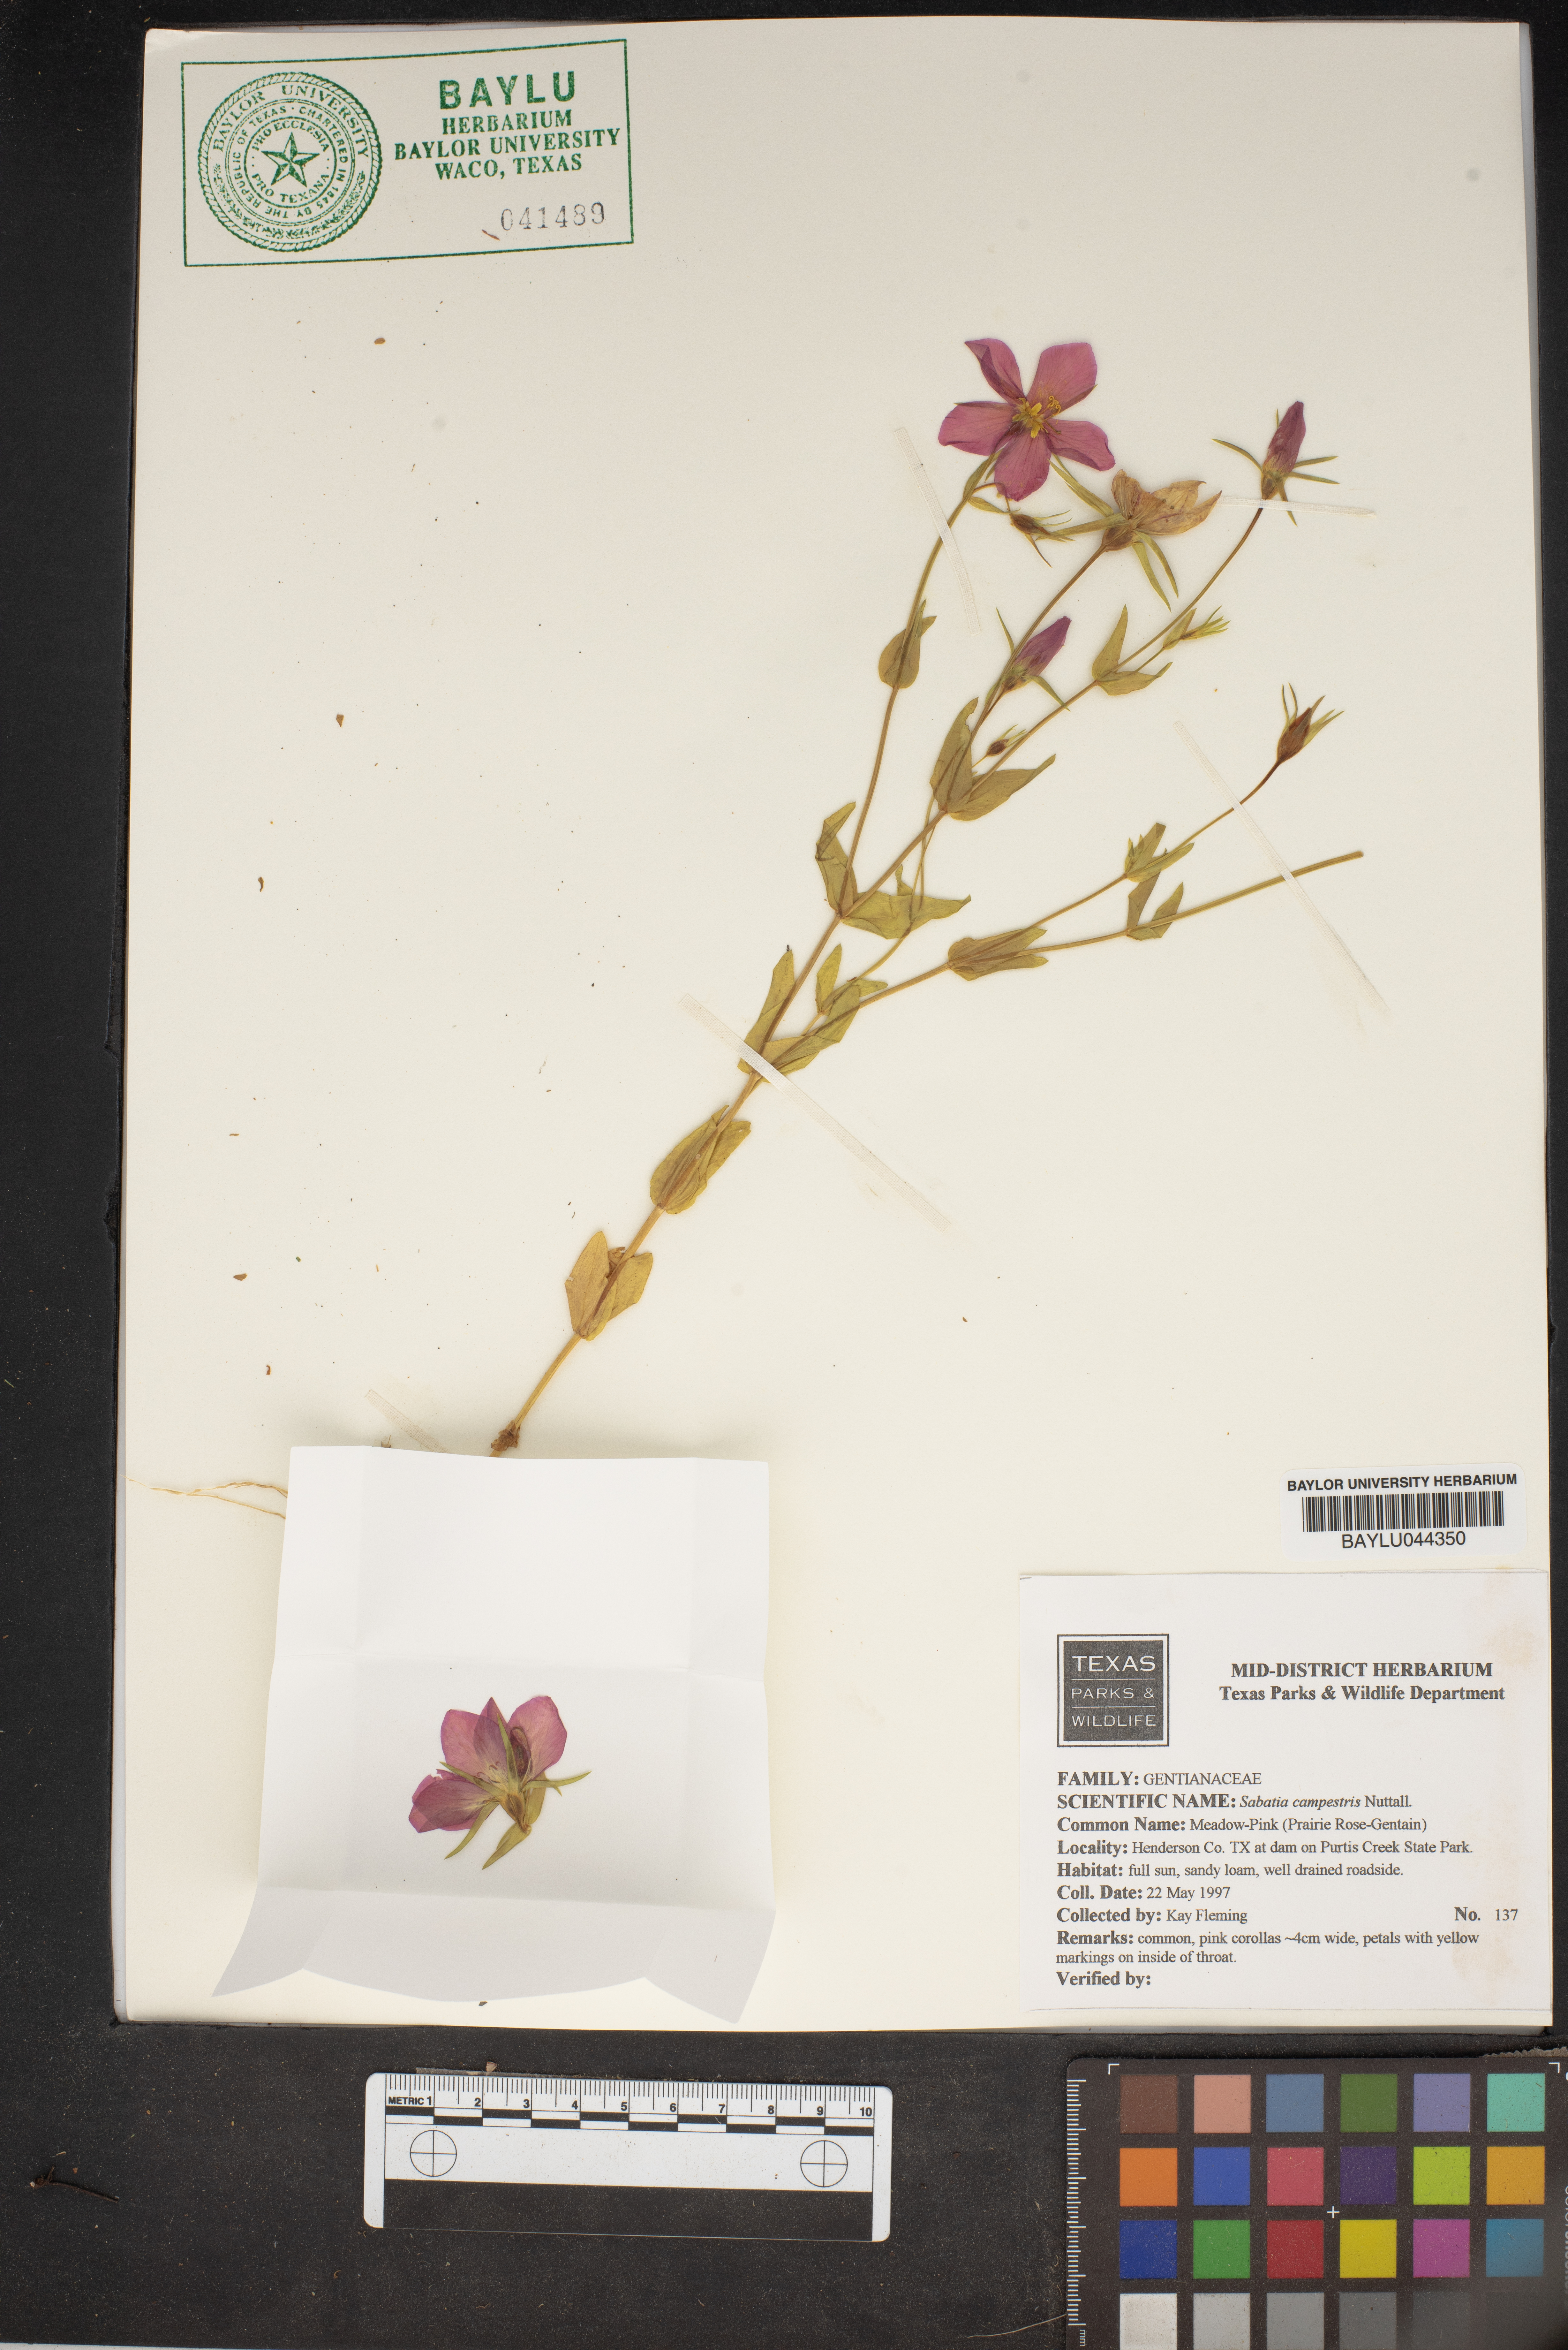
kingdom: Plantae
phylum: Tracheophyta
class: Magnoliopsida
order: Gentianales
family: Gentianaceae
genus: Sabatia
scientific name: Sabatia campestris
